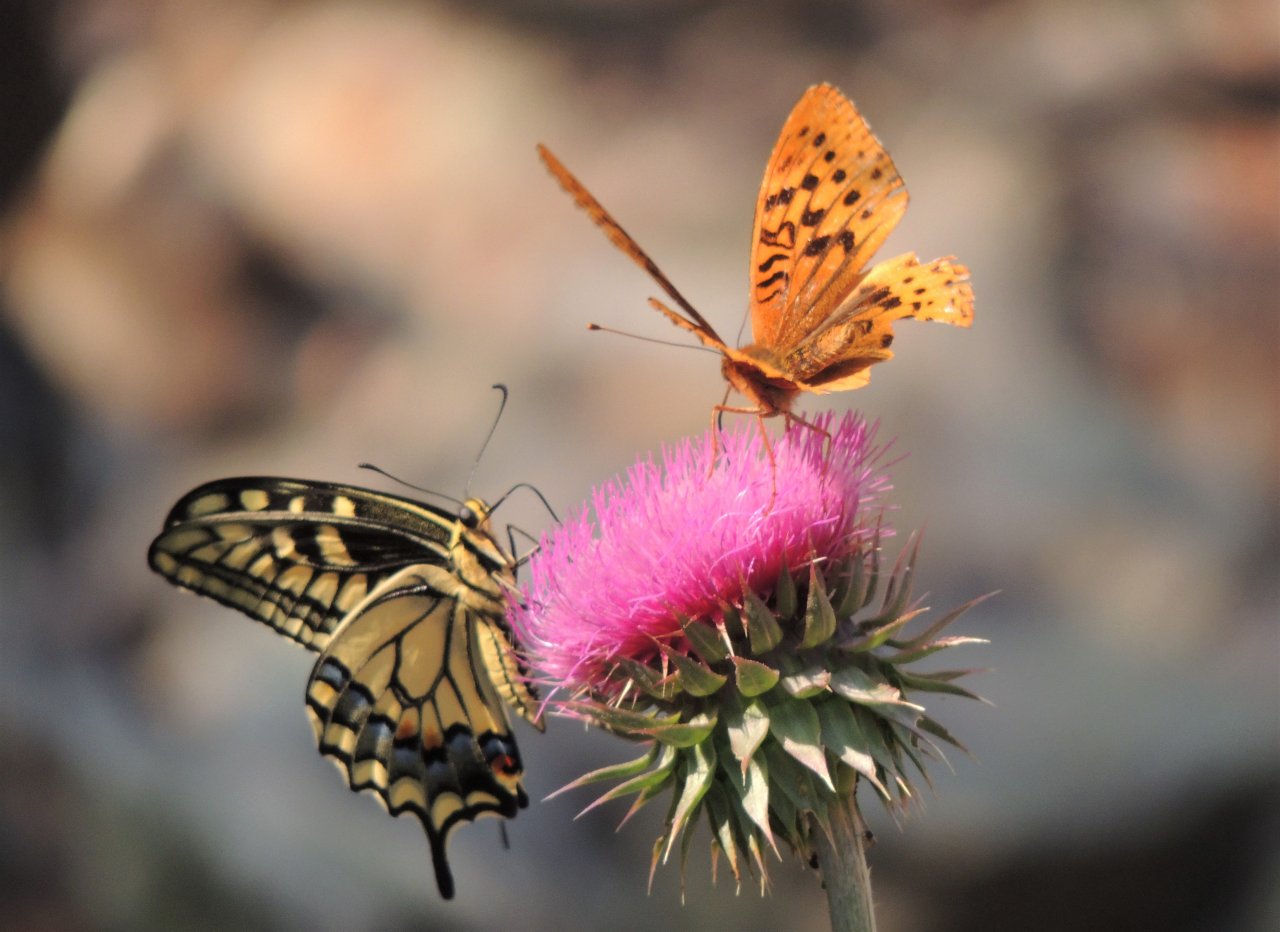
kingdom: Animalia
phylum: Arthropoda
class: Insecta
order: Lepidoptera
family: Nymphalidae
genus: Speyeria
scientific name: Speyeria cybele
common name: Great Spangled Fritillary
